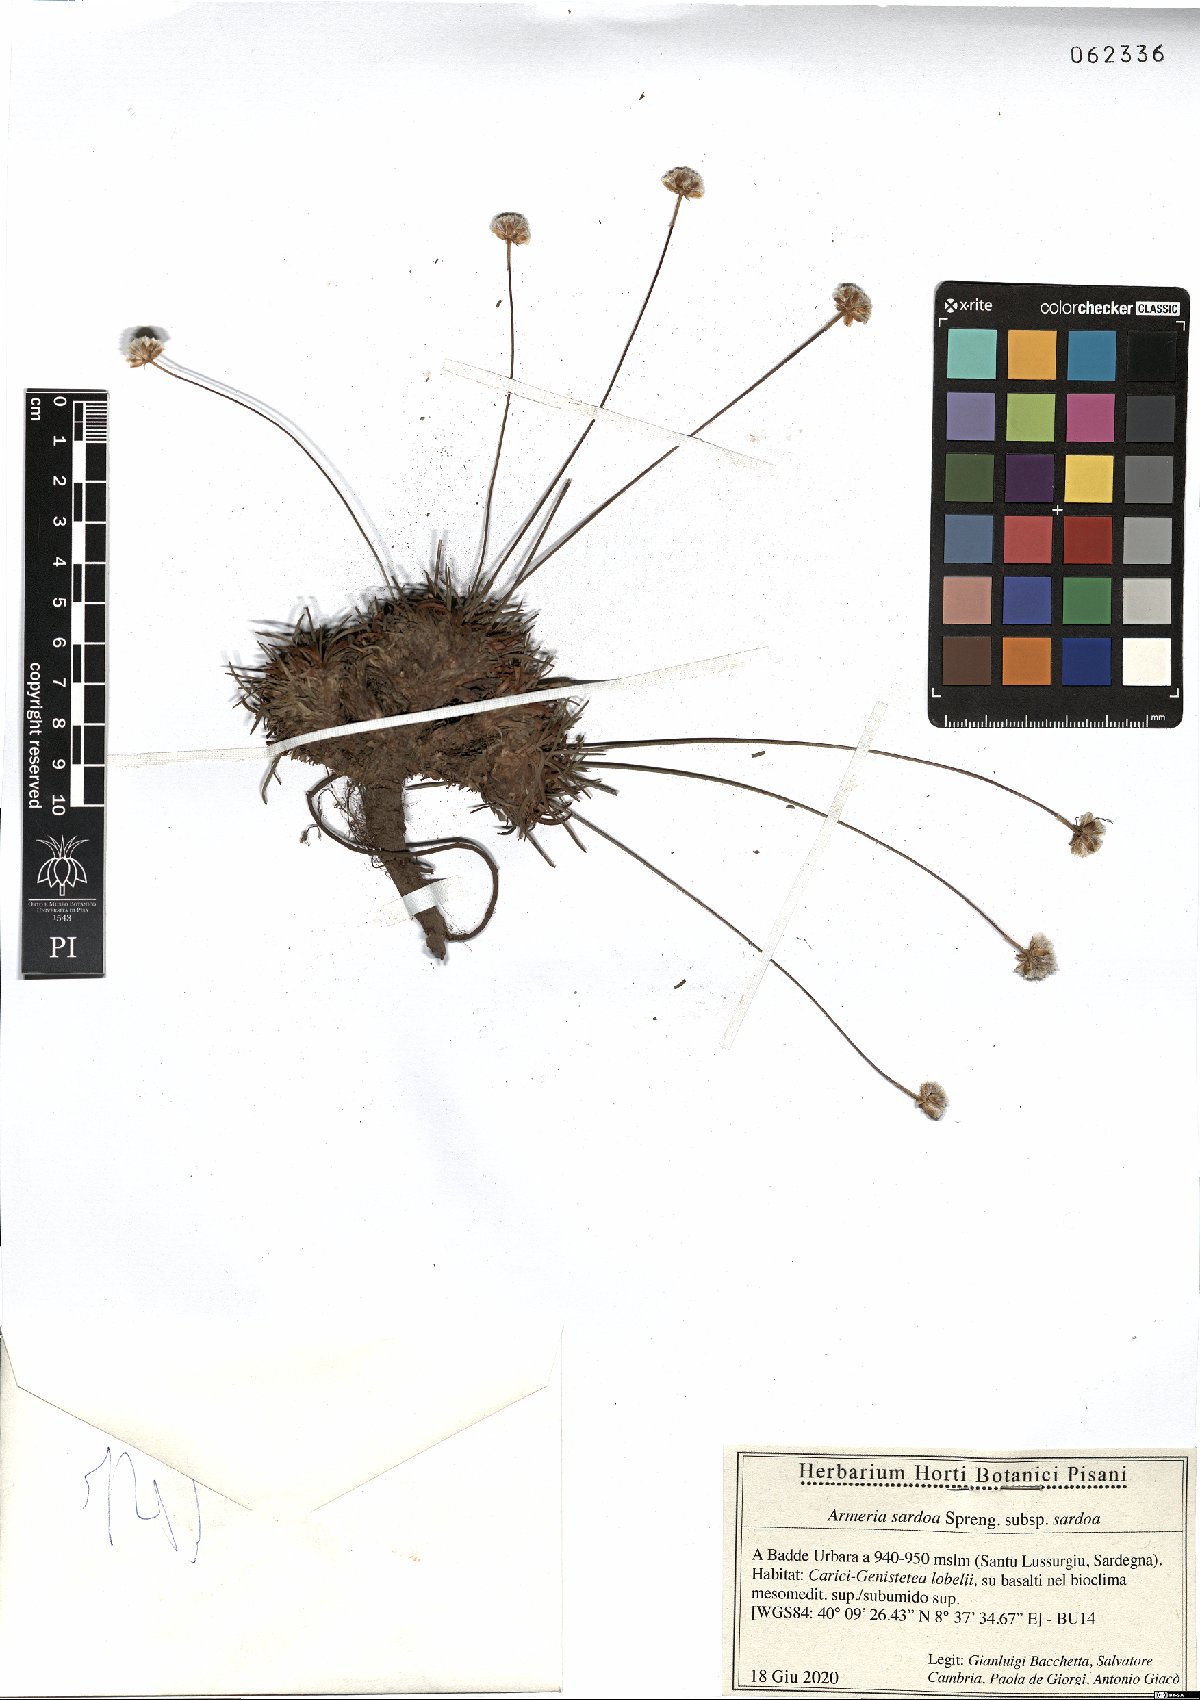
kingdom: Plantae
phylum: Tracheophyta
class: Magnoliopsida
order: Caryophyllales
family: Plumbaginaceae
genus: Armeria
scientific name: Armeria sardoa
